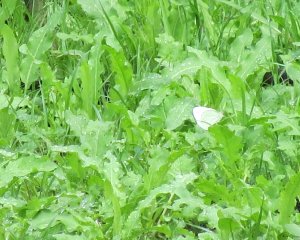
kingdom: Animalia
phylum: Arthropoda
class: Insecta
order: Lepidoptera
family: Pieridae
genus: Pieris
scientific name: Pieris oleracea
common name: Mustard White
